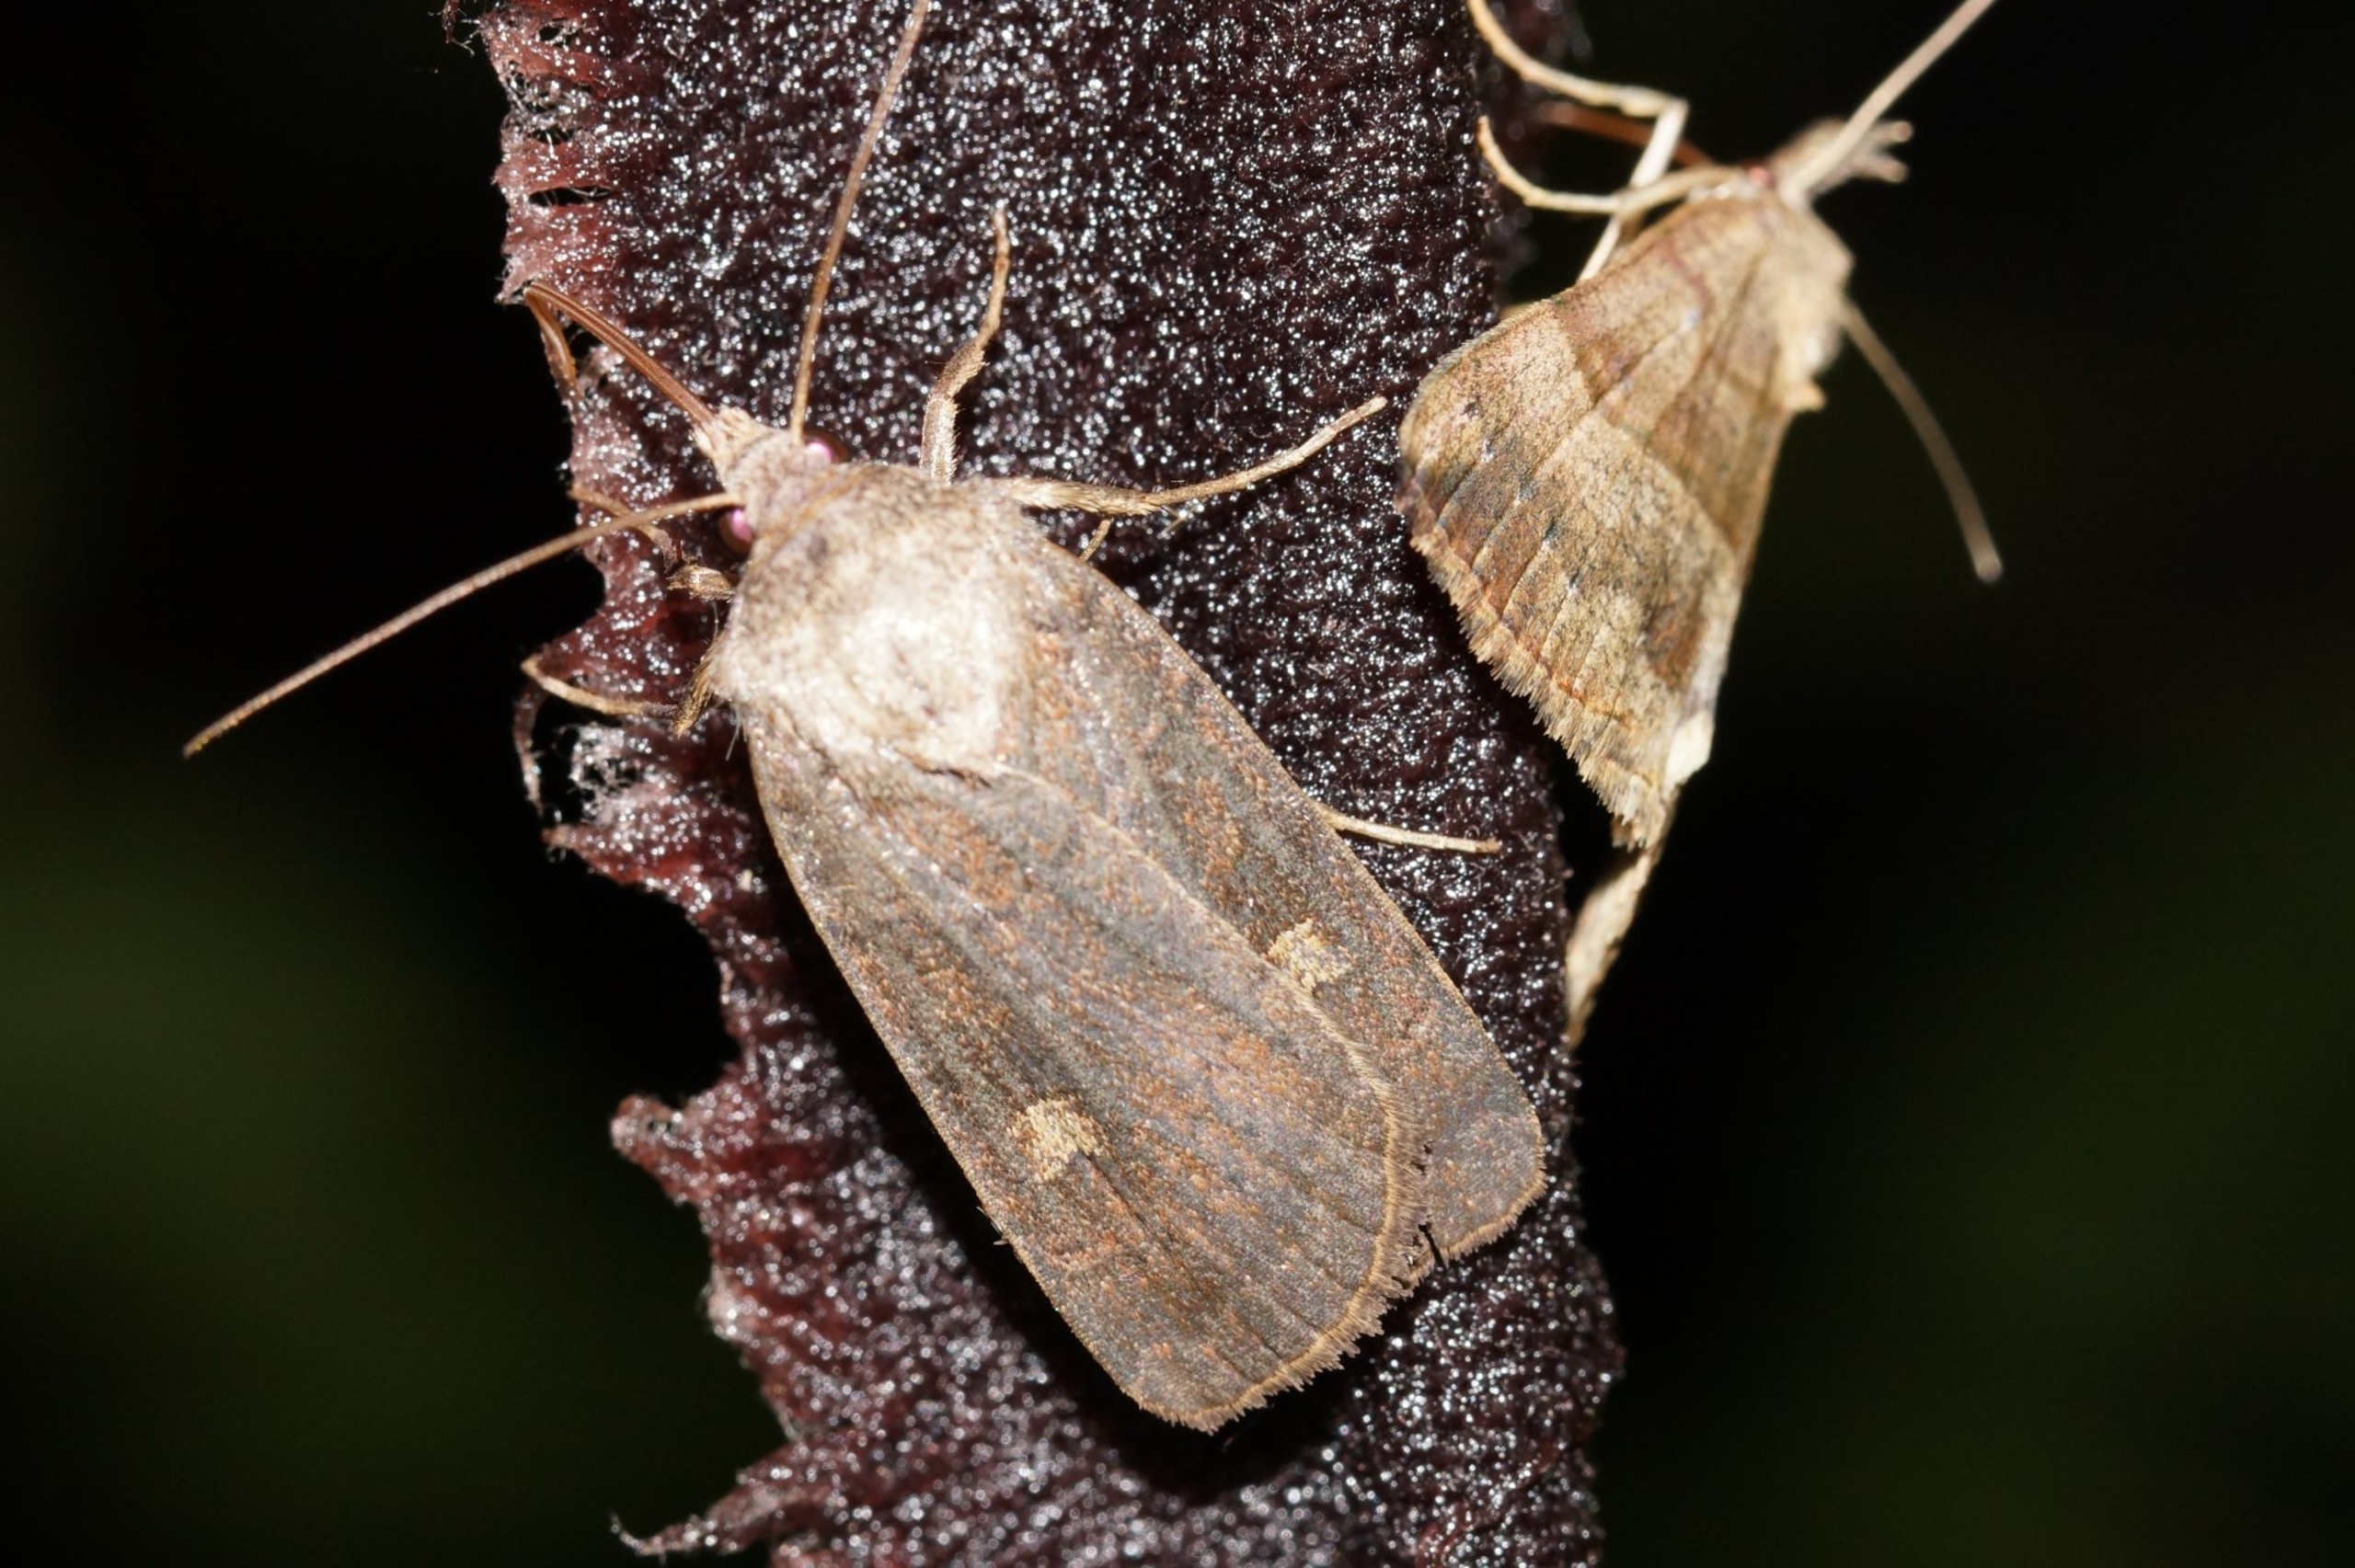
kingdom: Animalia
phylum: Arthropoda
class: Insecta
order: Lepidoptera
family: Noctuidae
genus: Xestia
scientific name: Xestia xanthographa
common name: Gulmærket glansugle
